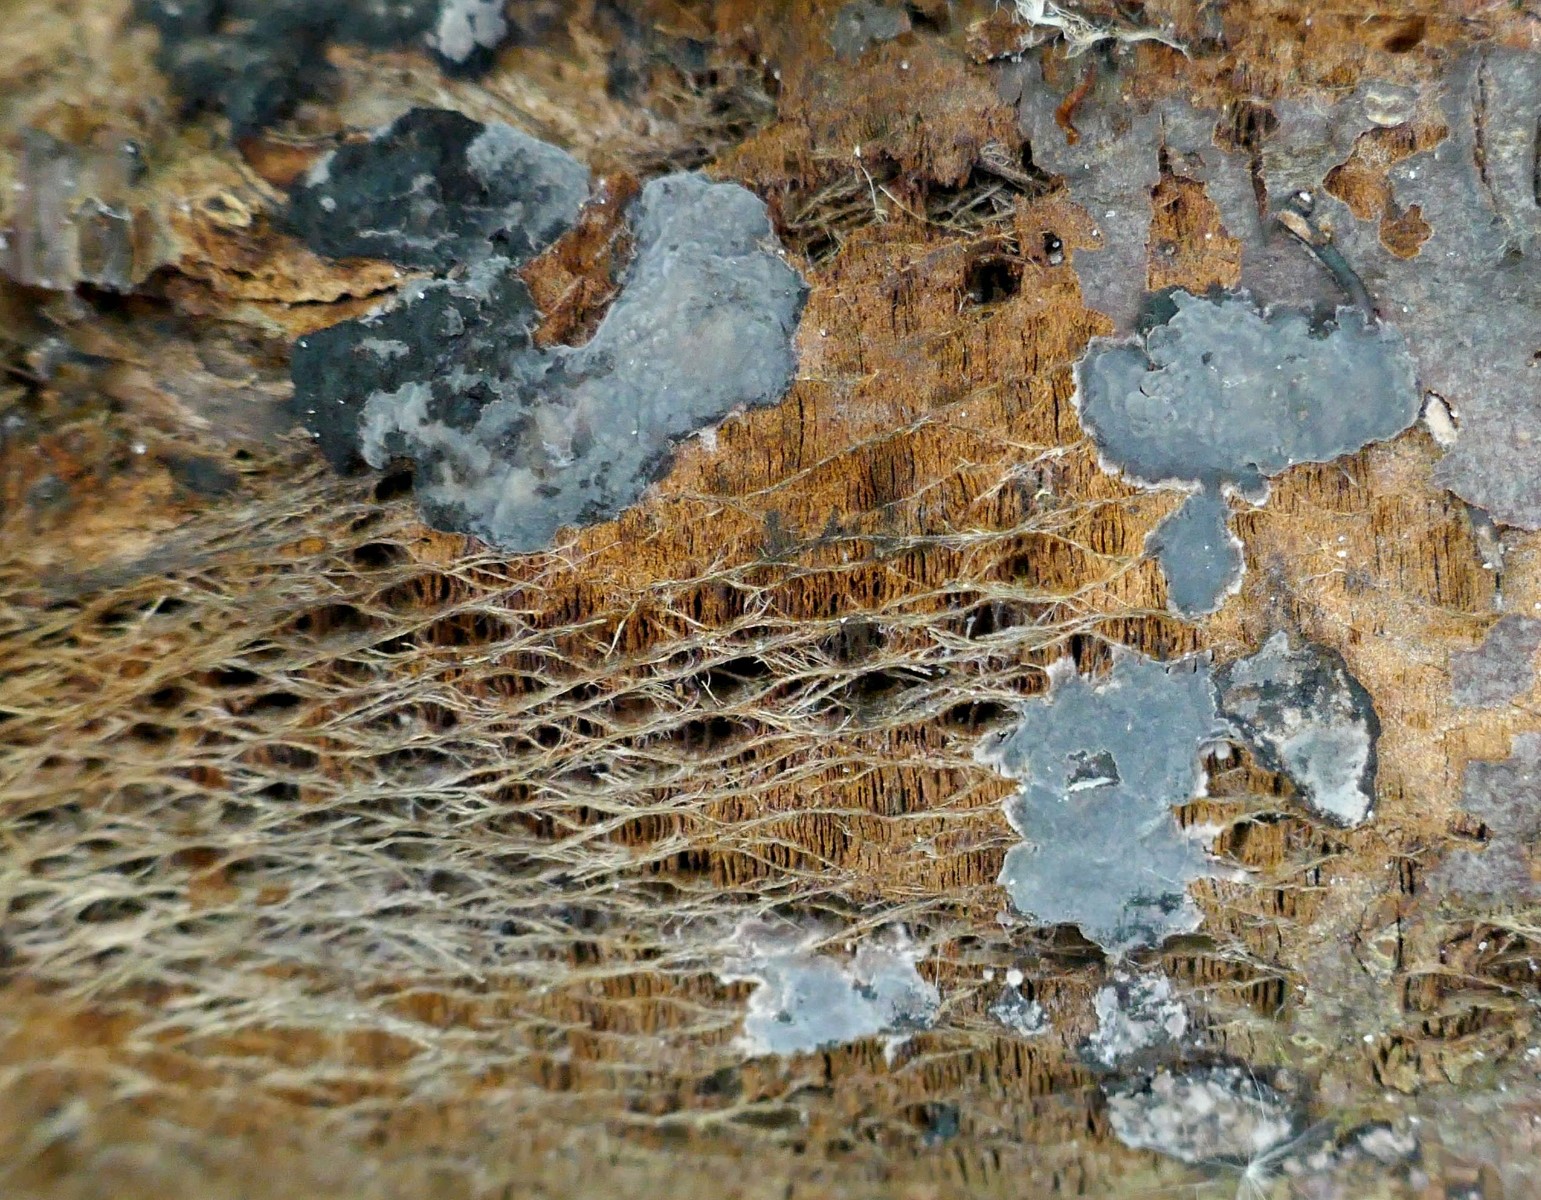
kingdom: Fungi
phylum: Basidiomycota
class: Agaricomycetes
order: Russulales
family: Peniophoraceae
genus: Peniophora
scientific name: Peniophora rufomarginata
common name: linde-voksskind
